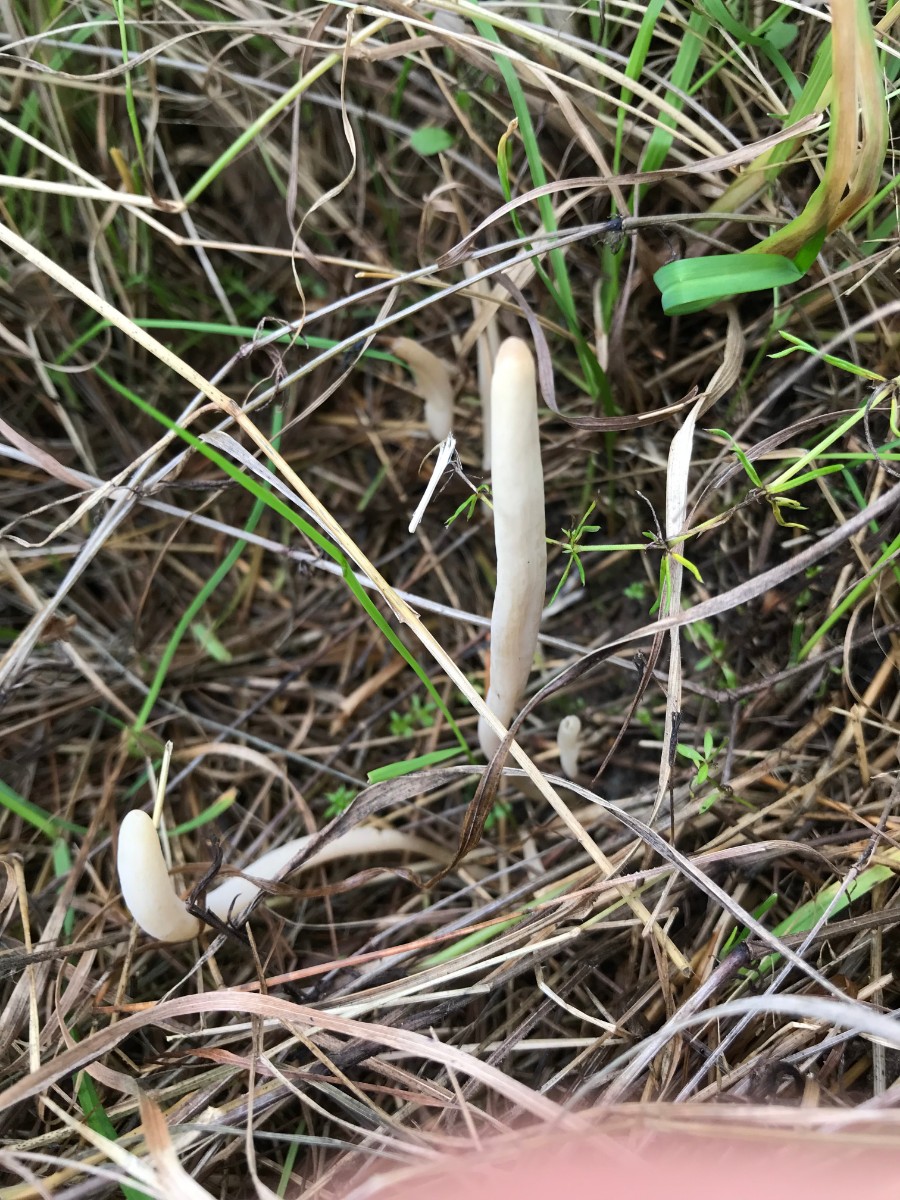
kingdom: Fungi
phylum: Basidiomycota
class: Agaricomycetes
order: Agaricales
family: Clavariaceae
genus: Clavaria
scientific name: Clavaria tenuipes
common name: isabellafarvet køllesvamp
